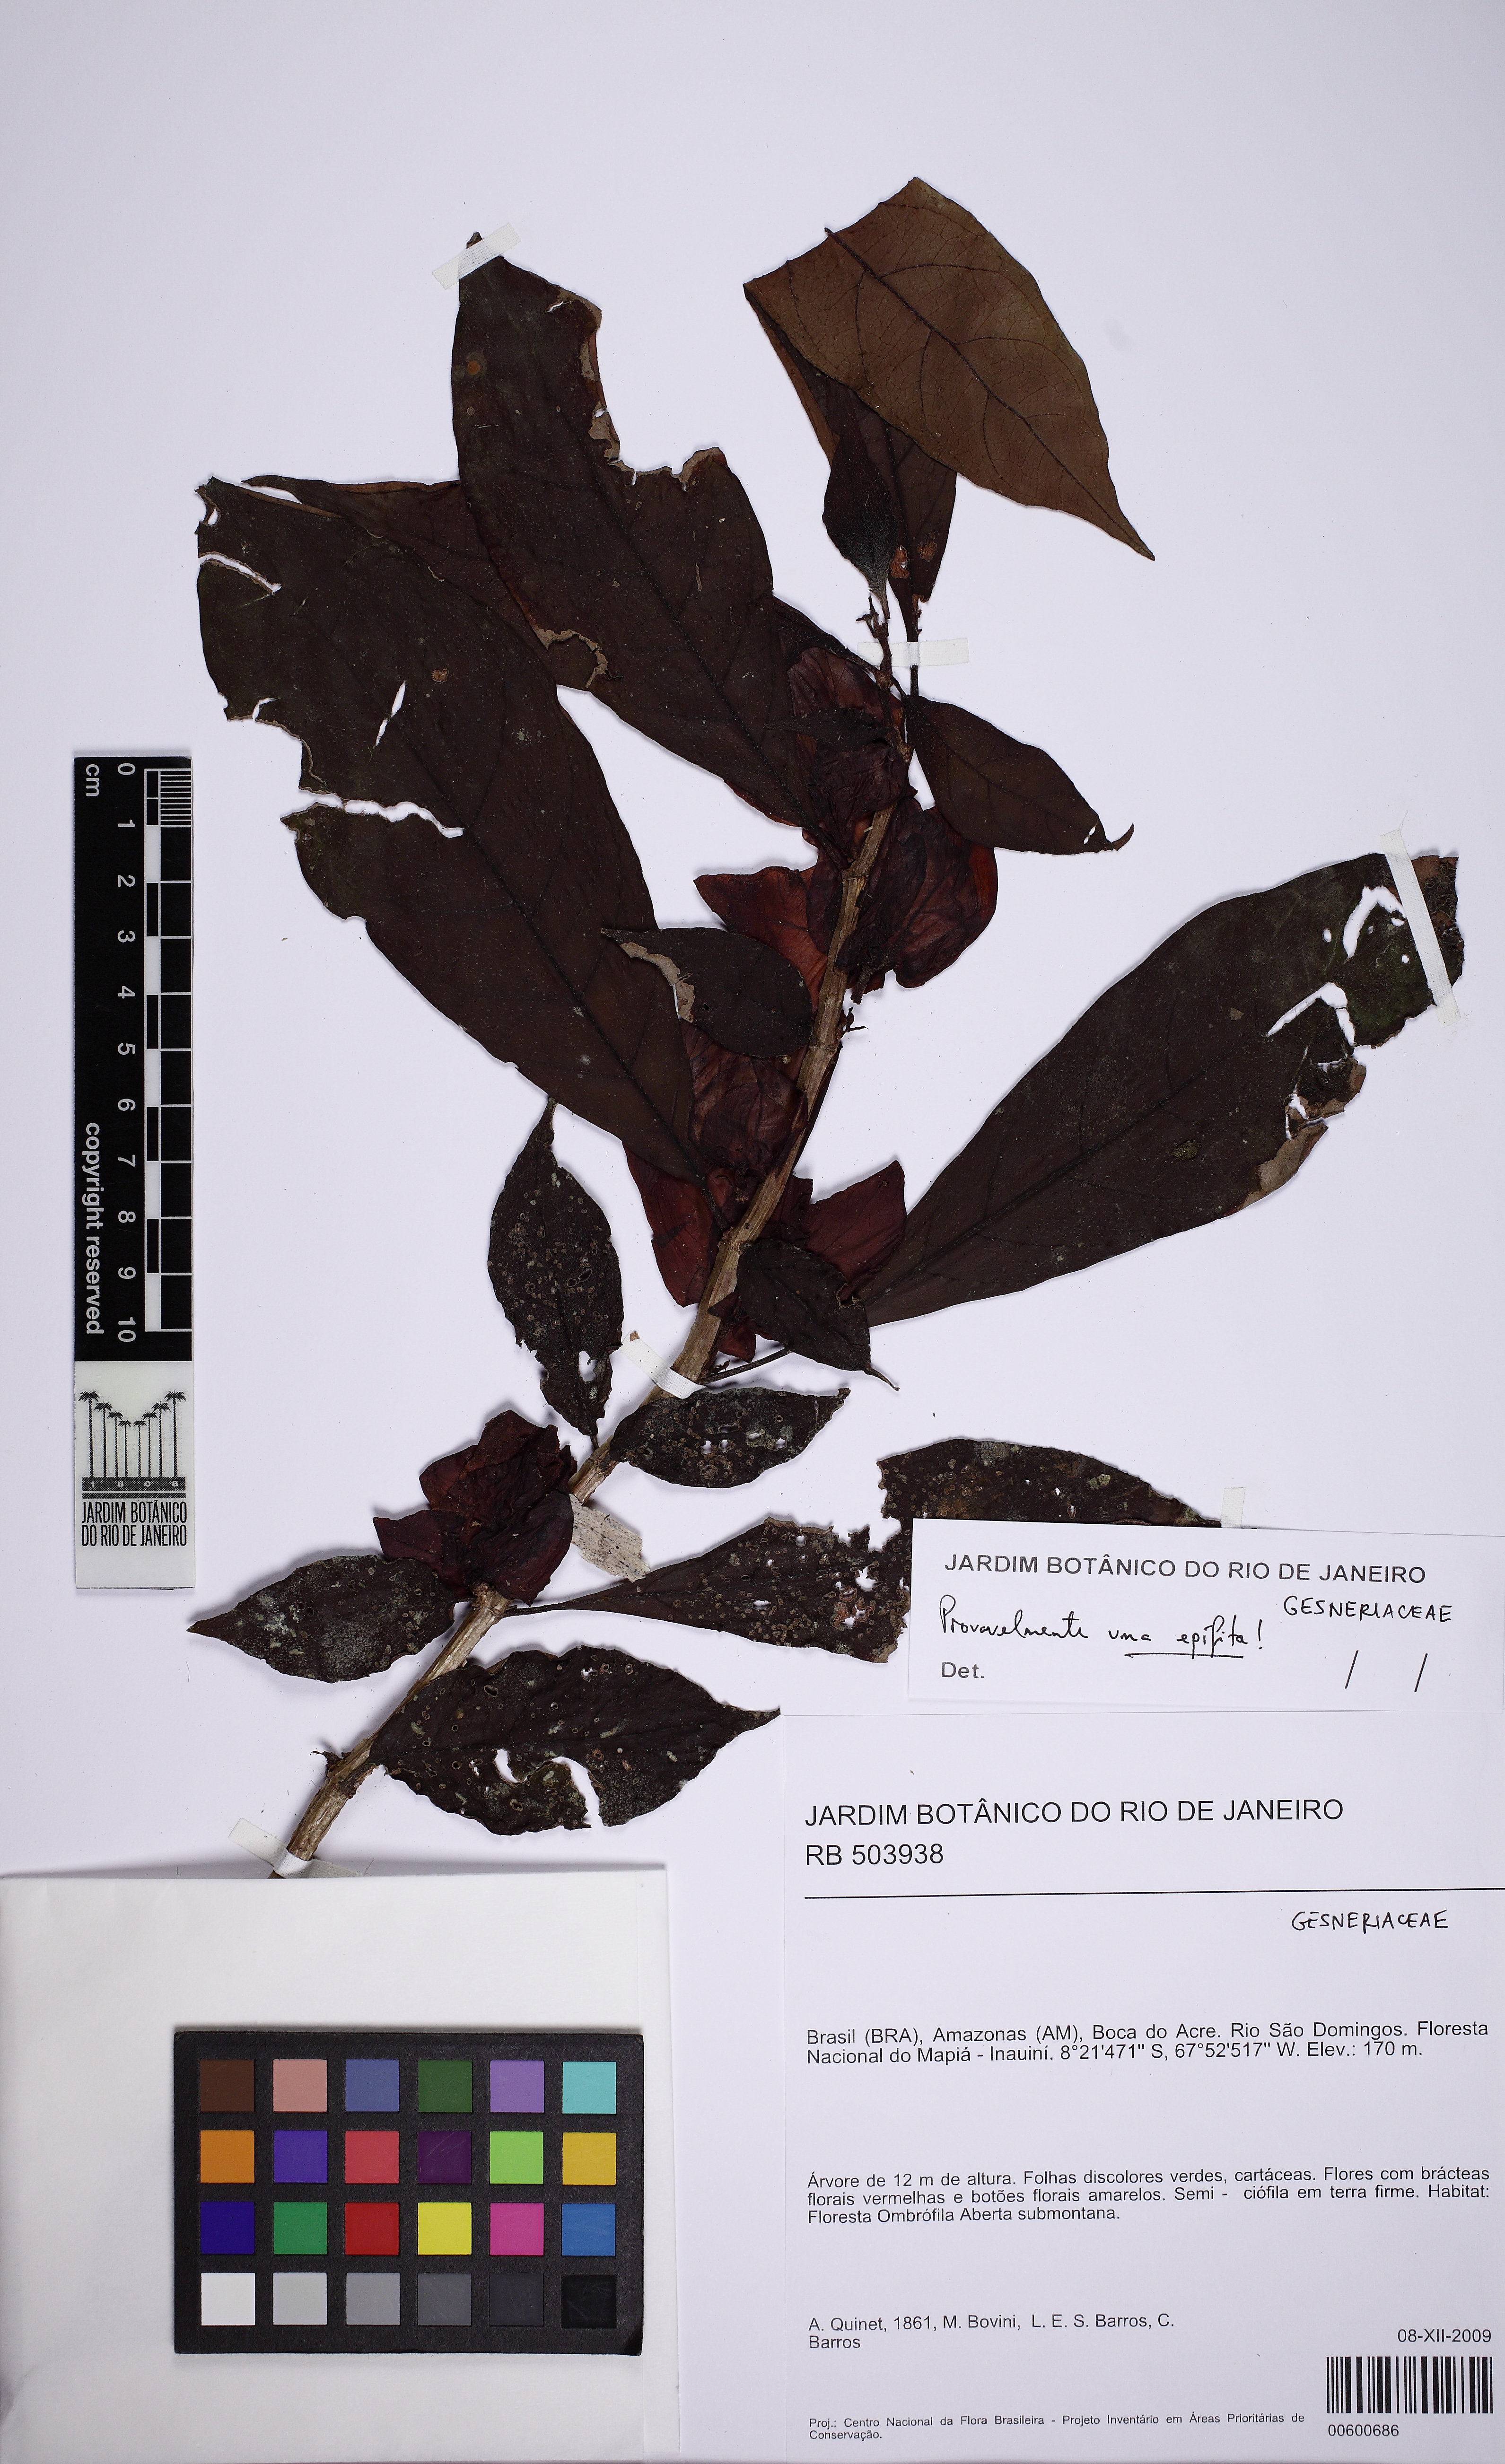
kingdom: Plantae
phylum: Tracheophyta
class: Magnoliopsida
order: Lamiales
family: Gesneriaceae
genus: Drymonia
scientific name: Drymonia
